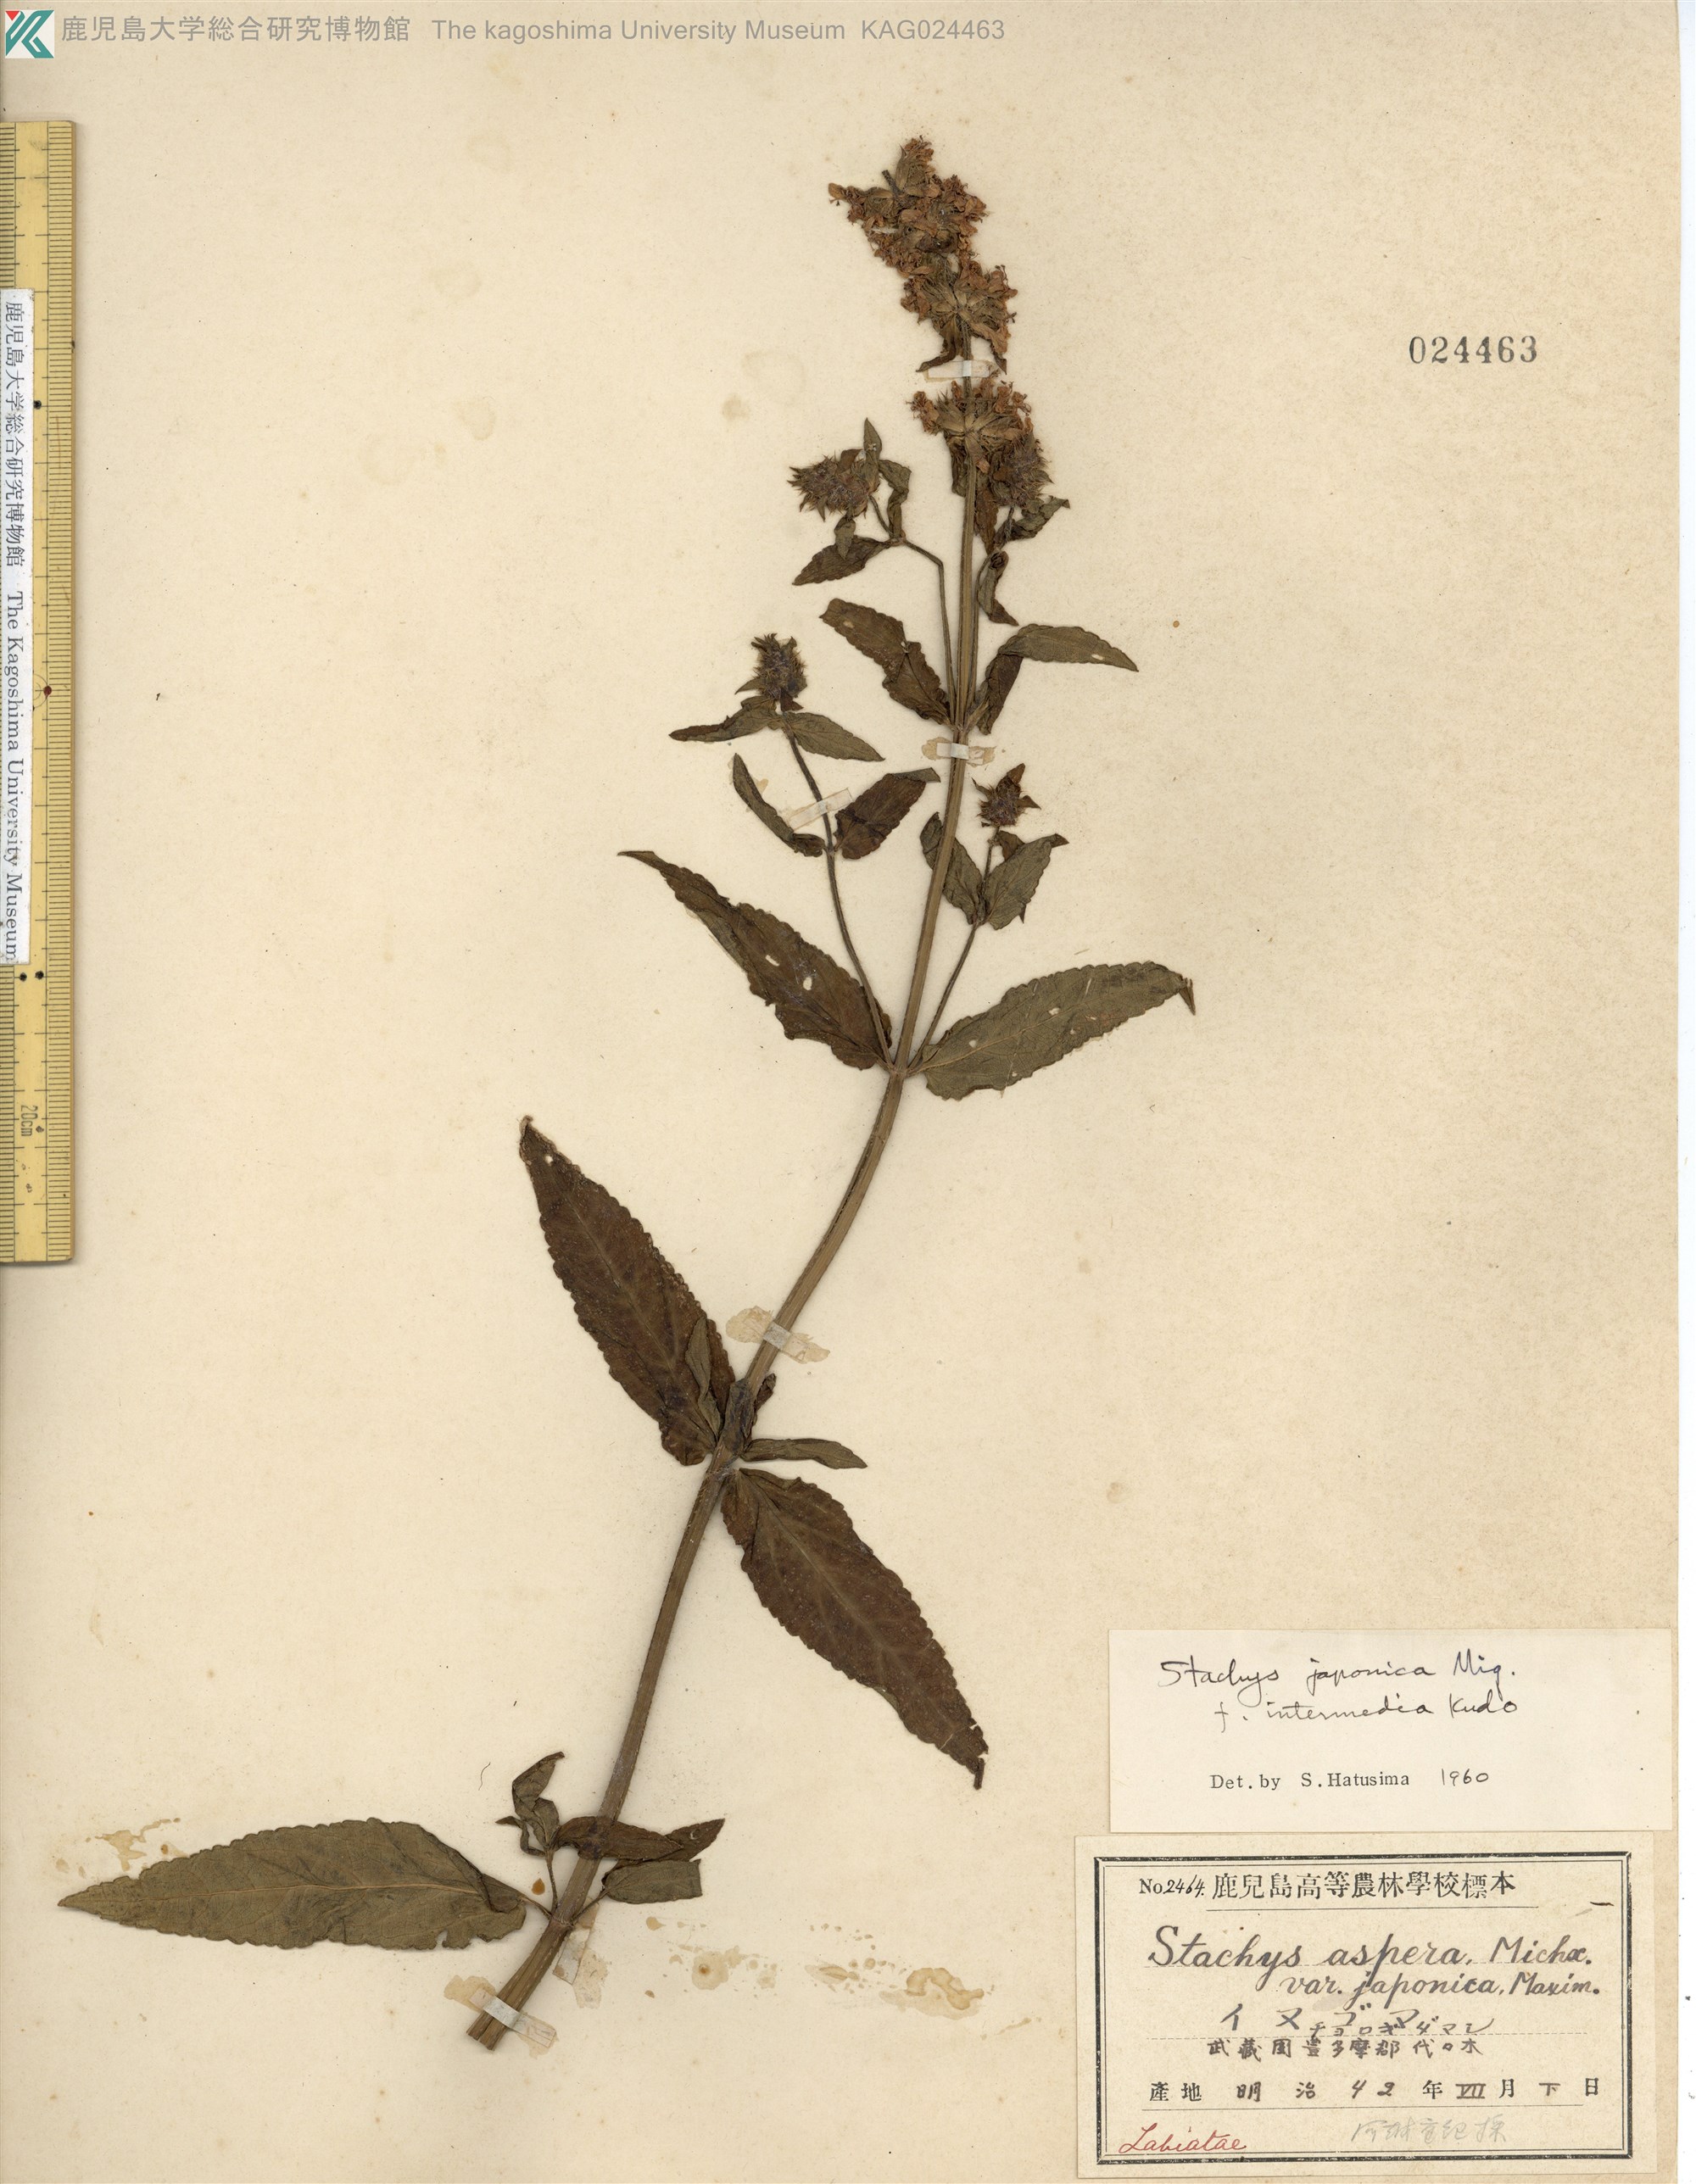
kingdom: Plantae
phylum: Tracheophyta
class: Magnoliopsida
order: Lamiales
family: Lamiaceae
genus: Stachys
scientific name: Stachys aspera
